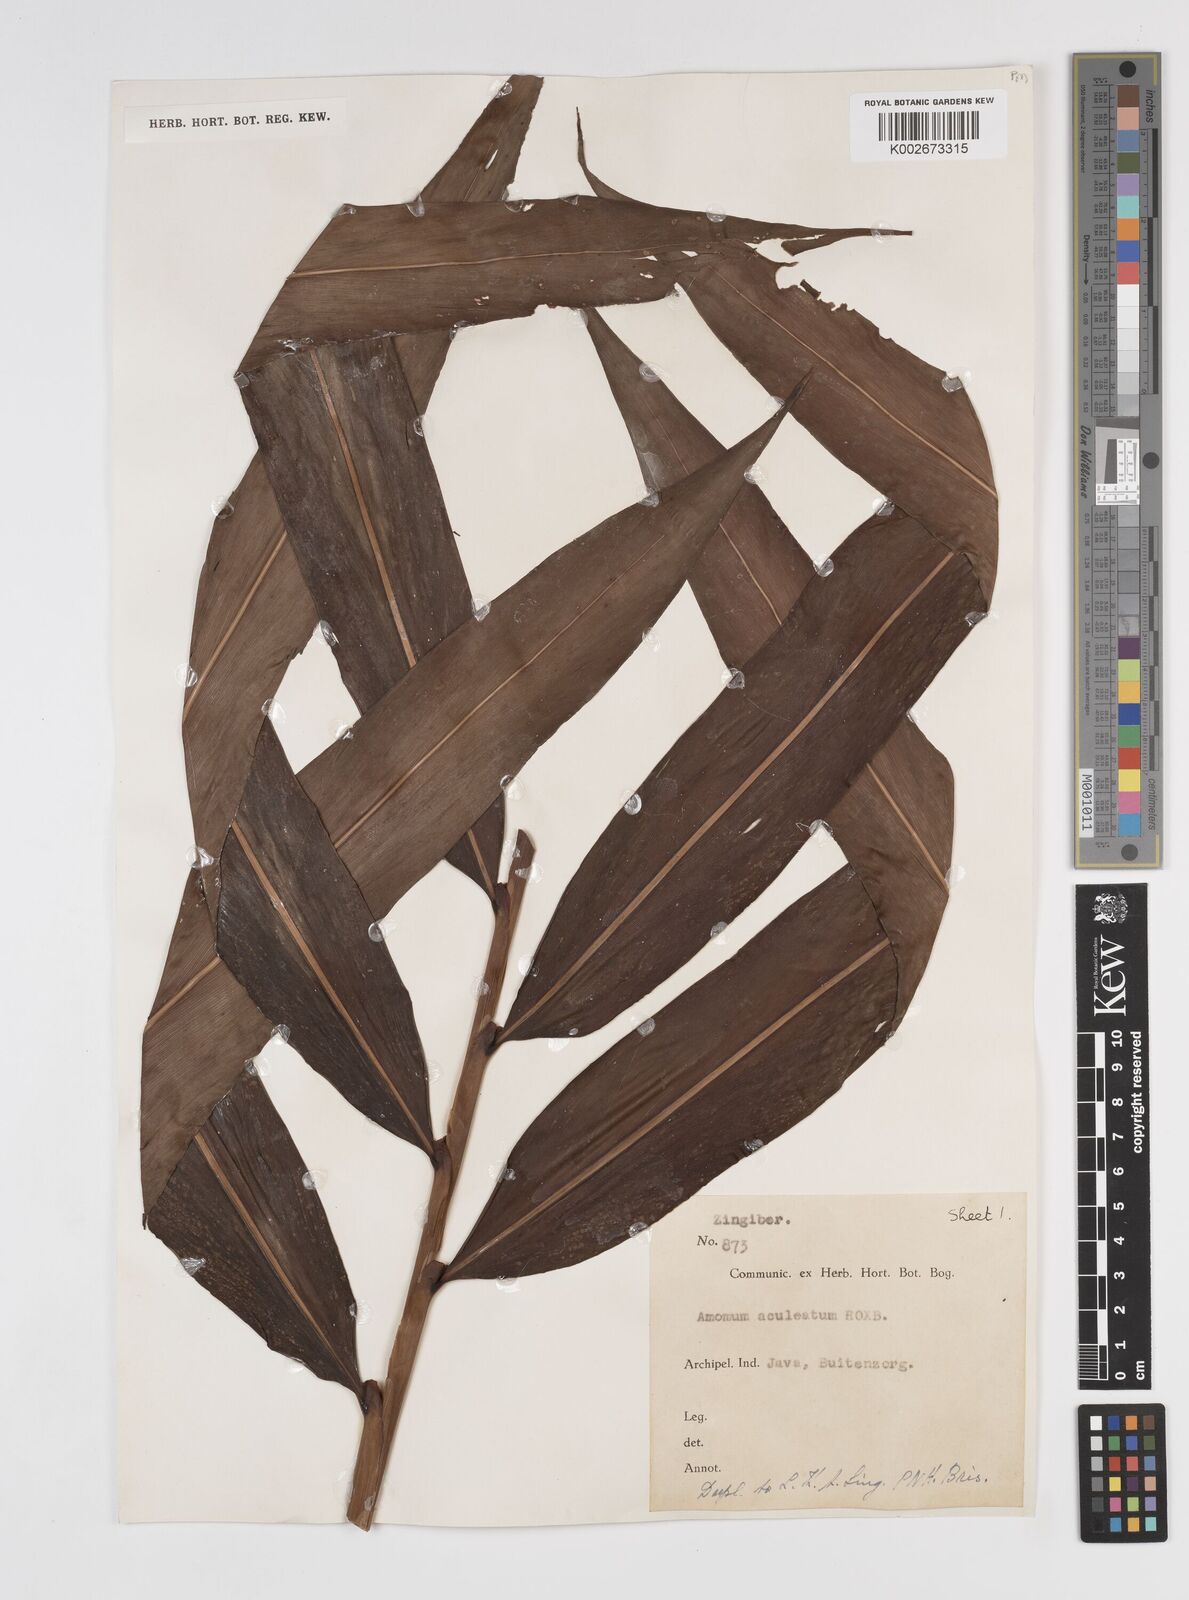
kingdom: Plantae
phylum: Tracheophyta
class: Liliopsida
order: Zingiberales
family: Zingiberaceae
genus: Meistera
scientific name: Meistera aculeata
